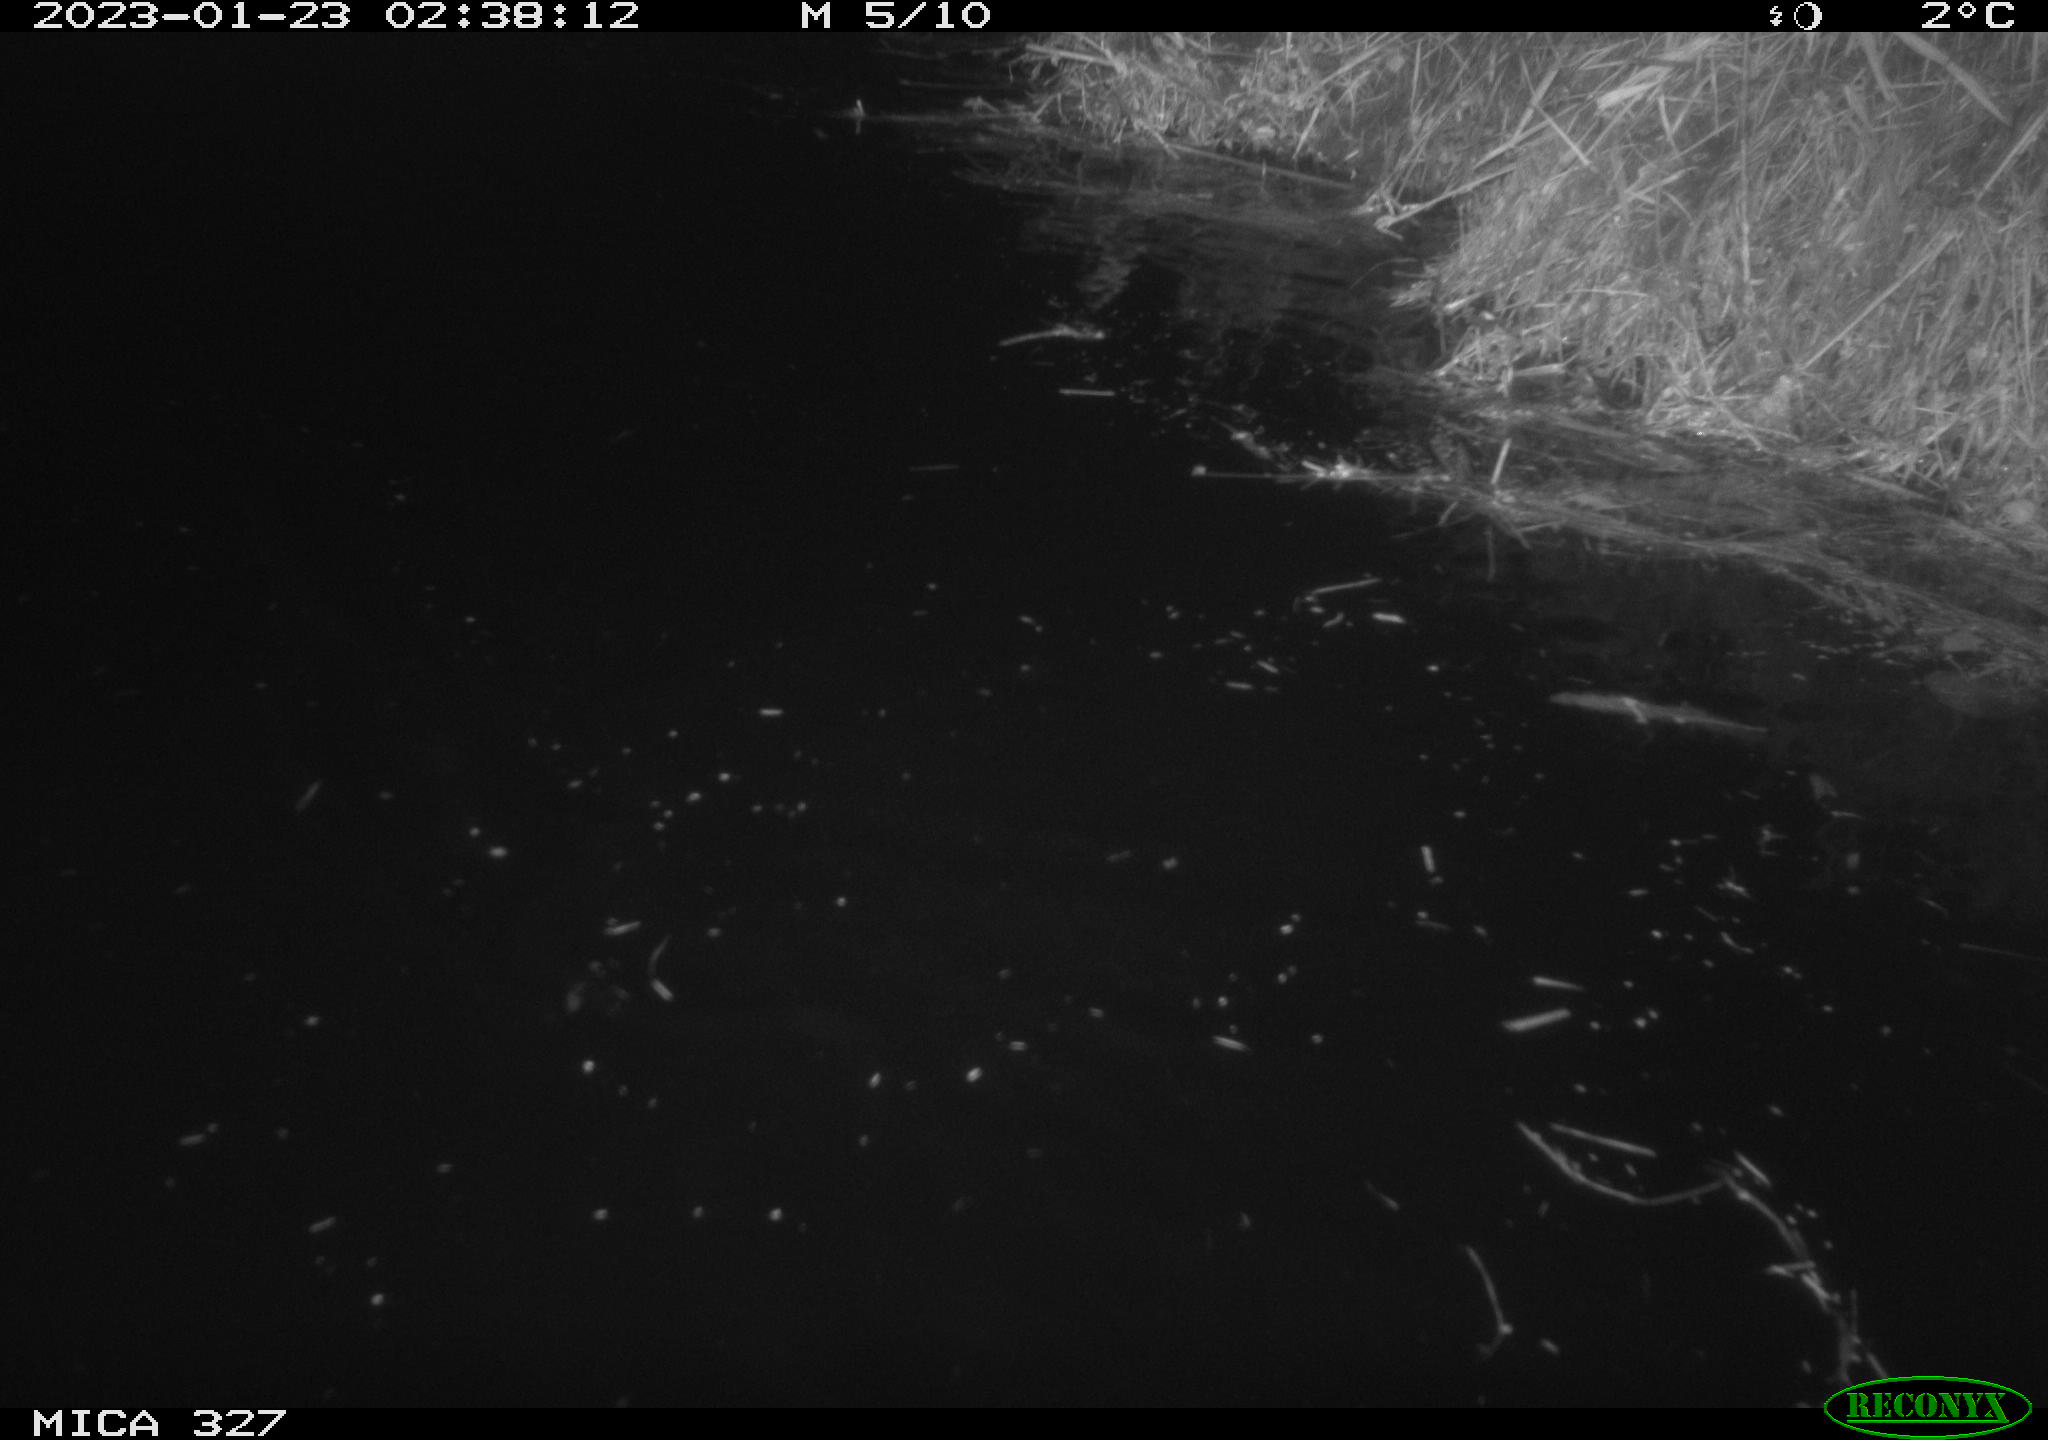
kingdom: Animalia
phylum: Chordata
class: Mammalia
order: Rodentia
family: Cricetidae
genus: Ondatra
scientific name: Ondatra zibethicus
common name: Muskrat
